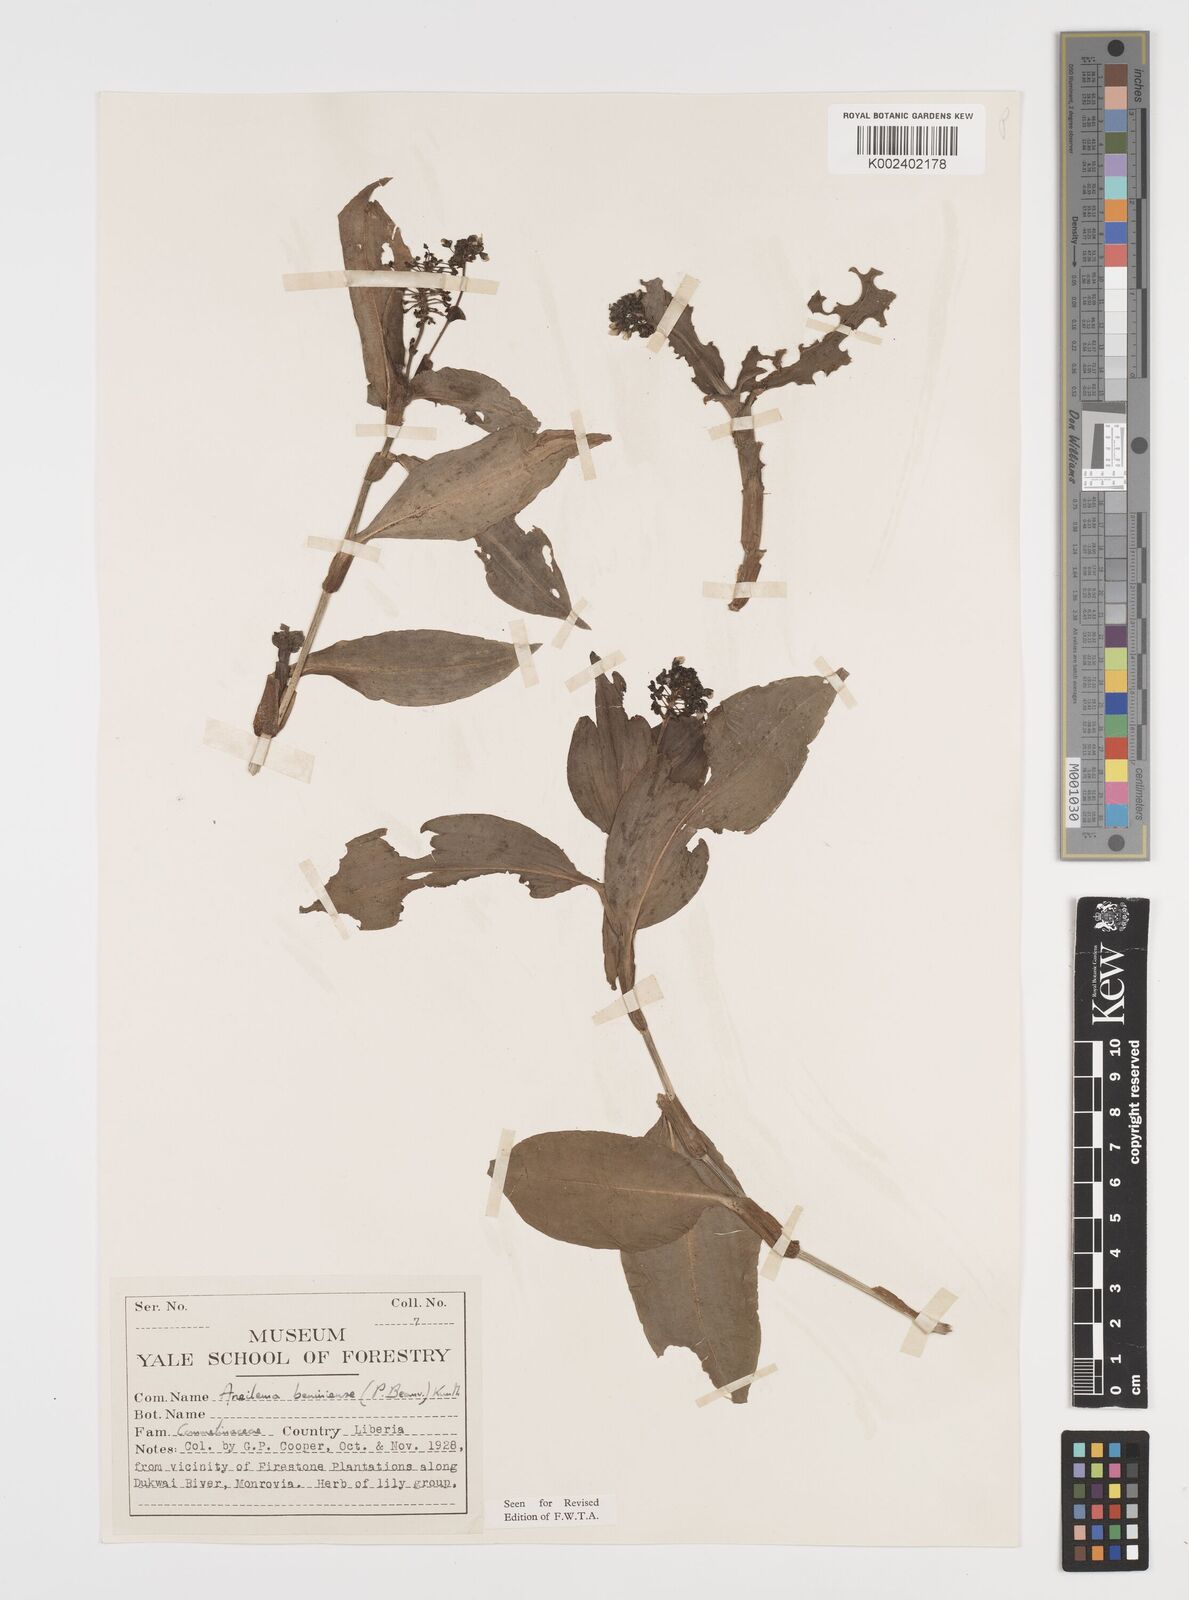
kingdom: Plantae
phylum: Tracheophyta
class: Liliopsida
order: Commelinales
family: Commelinaceae
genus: Aneilema
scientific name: Aneilema beniniense
